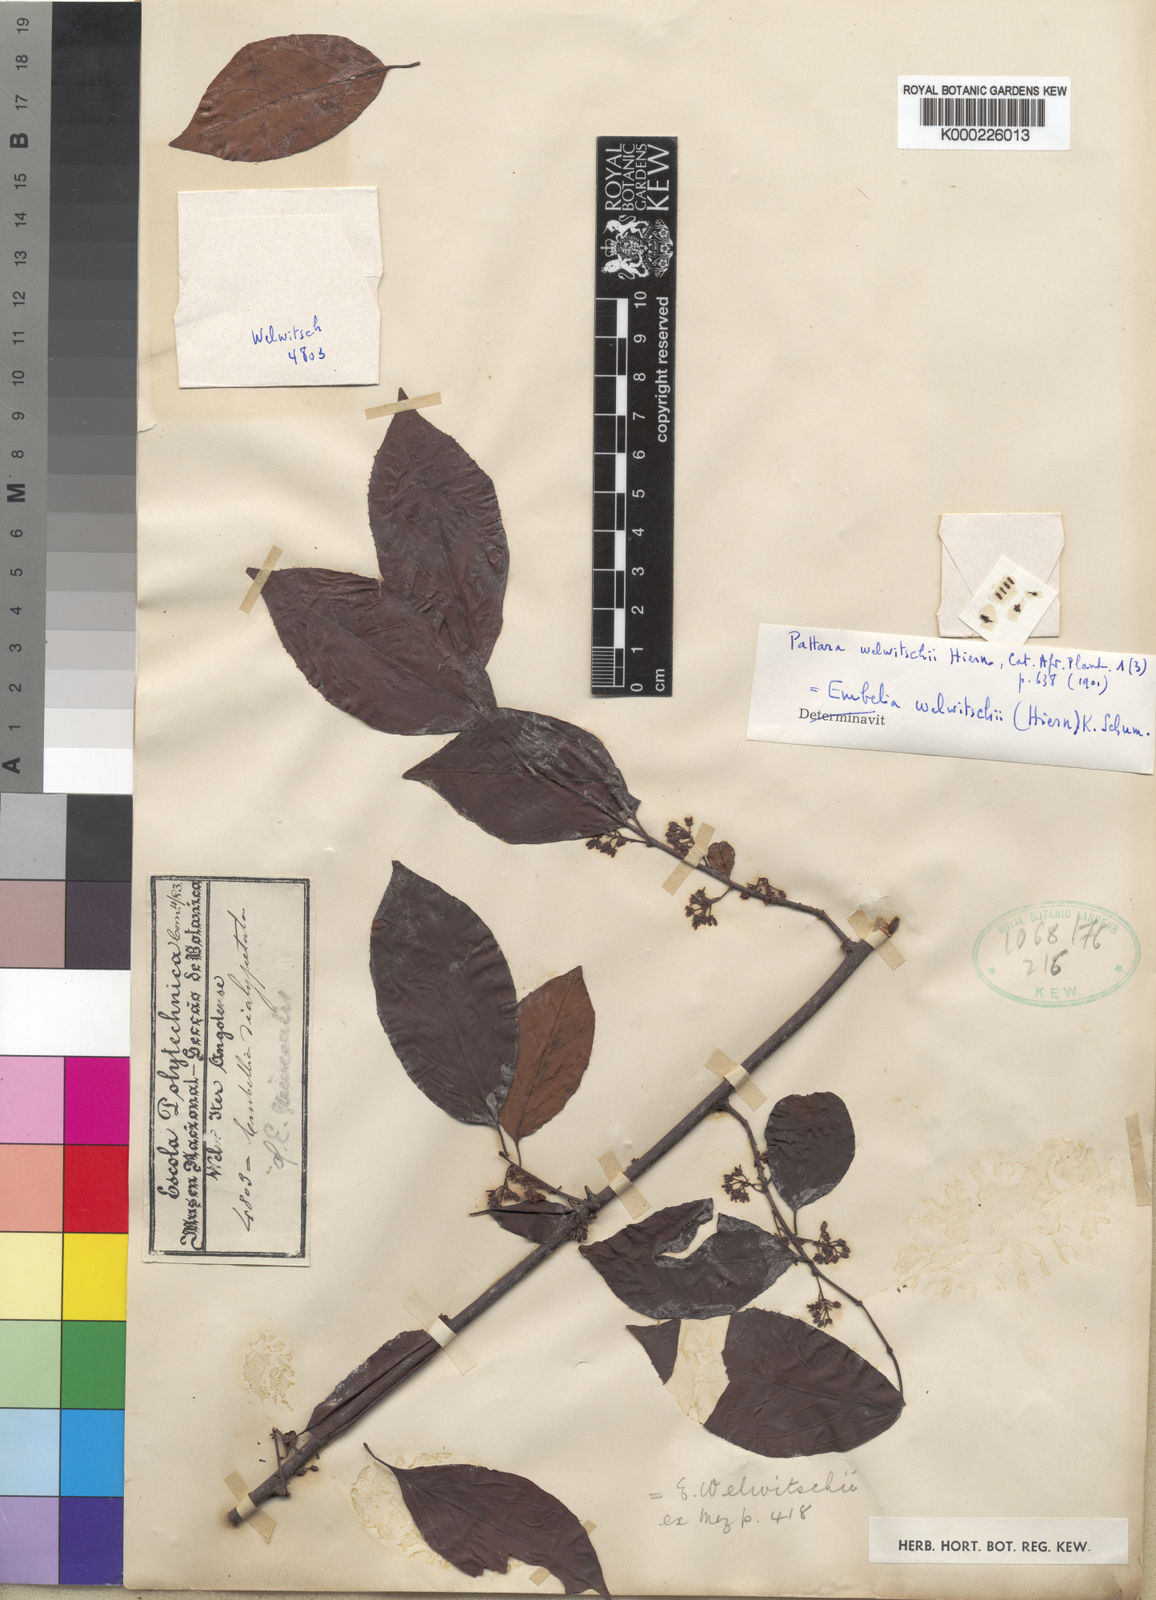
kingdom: Plantae
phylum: Tracheophyta
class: Magnoliopsida
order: Ericales
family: Primulaceae
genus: Embelia
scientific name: Embelia welwitschii
